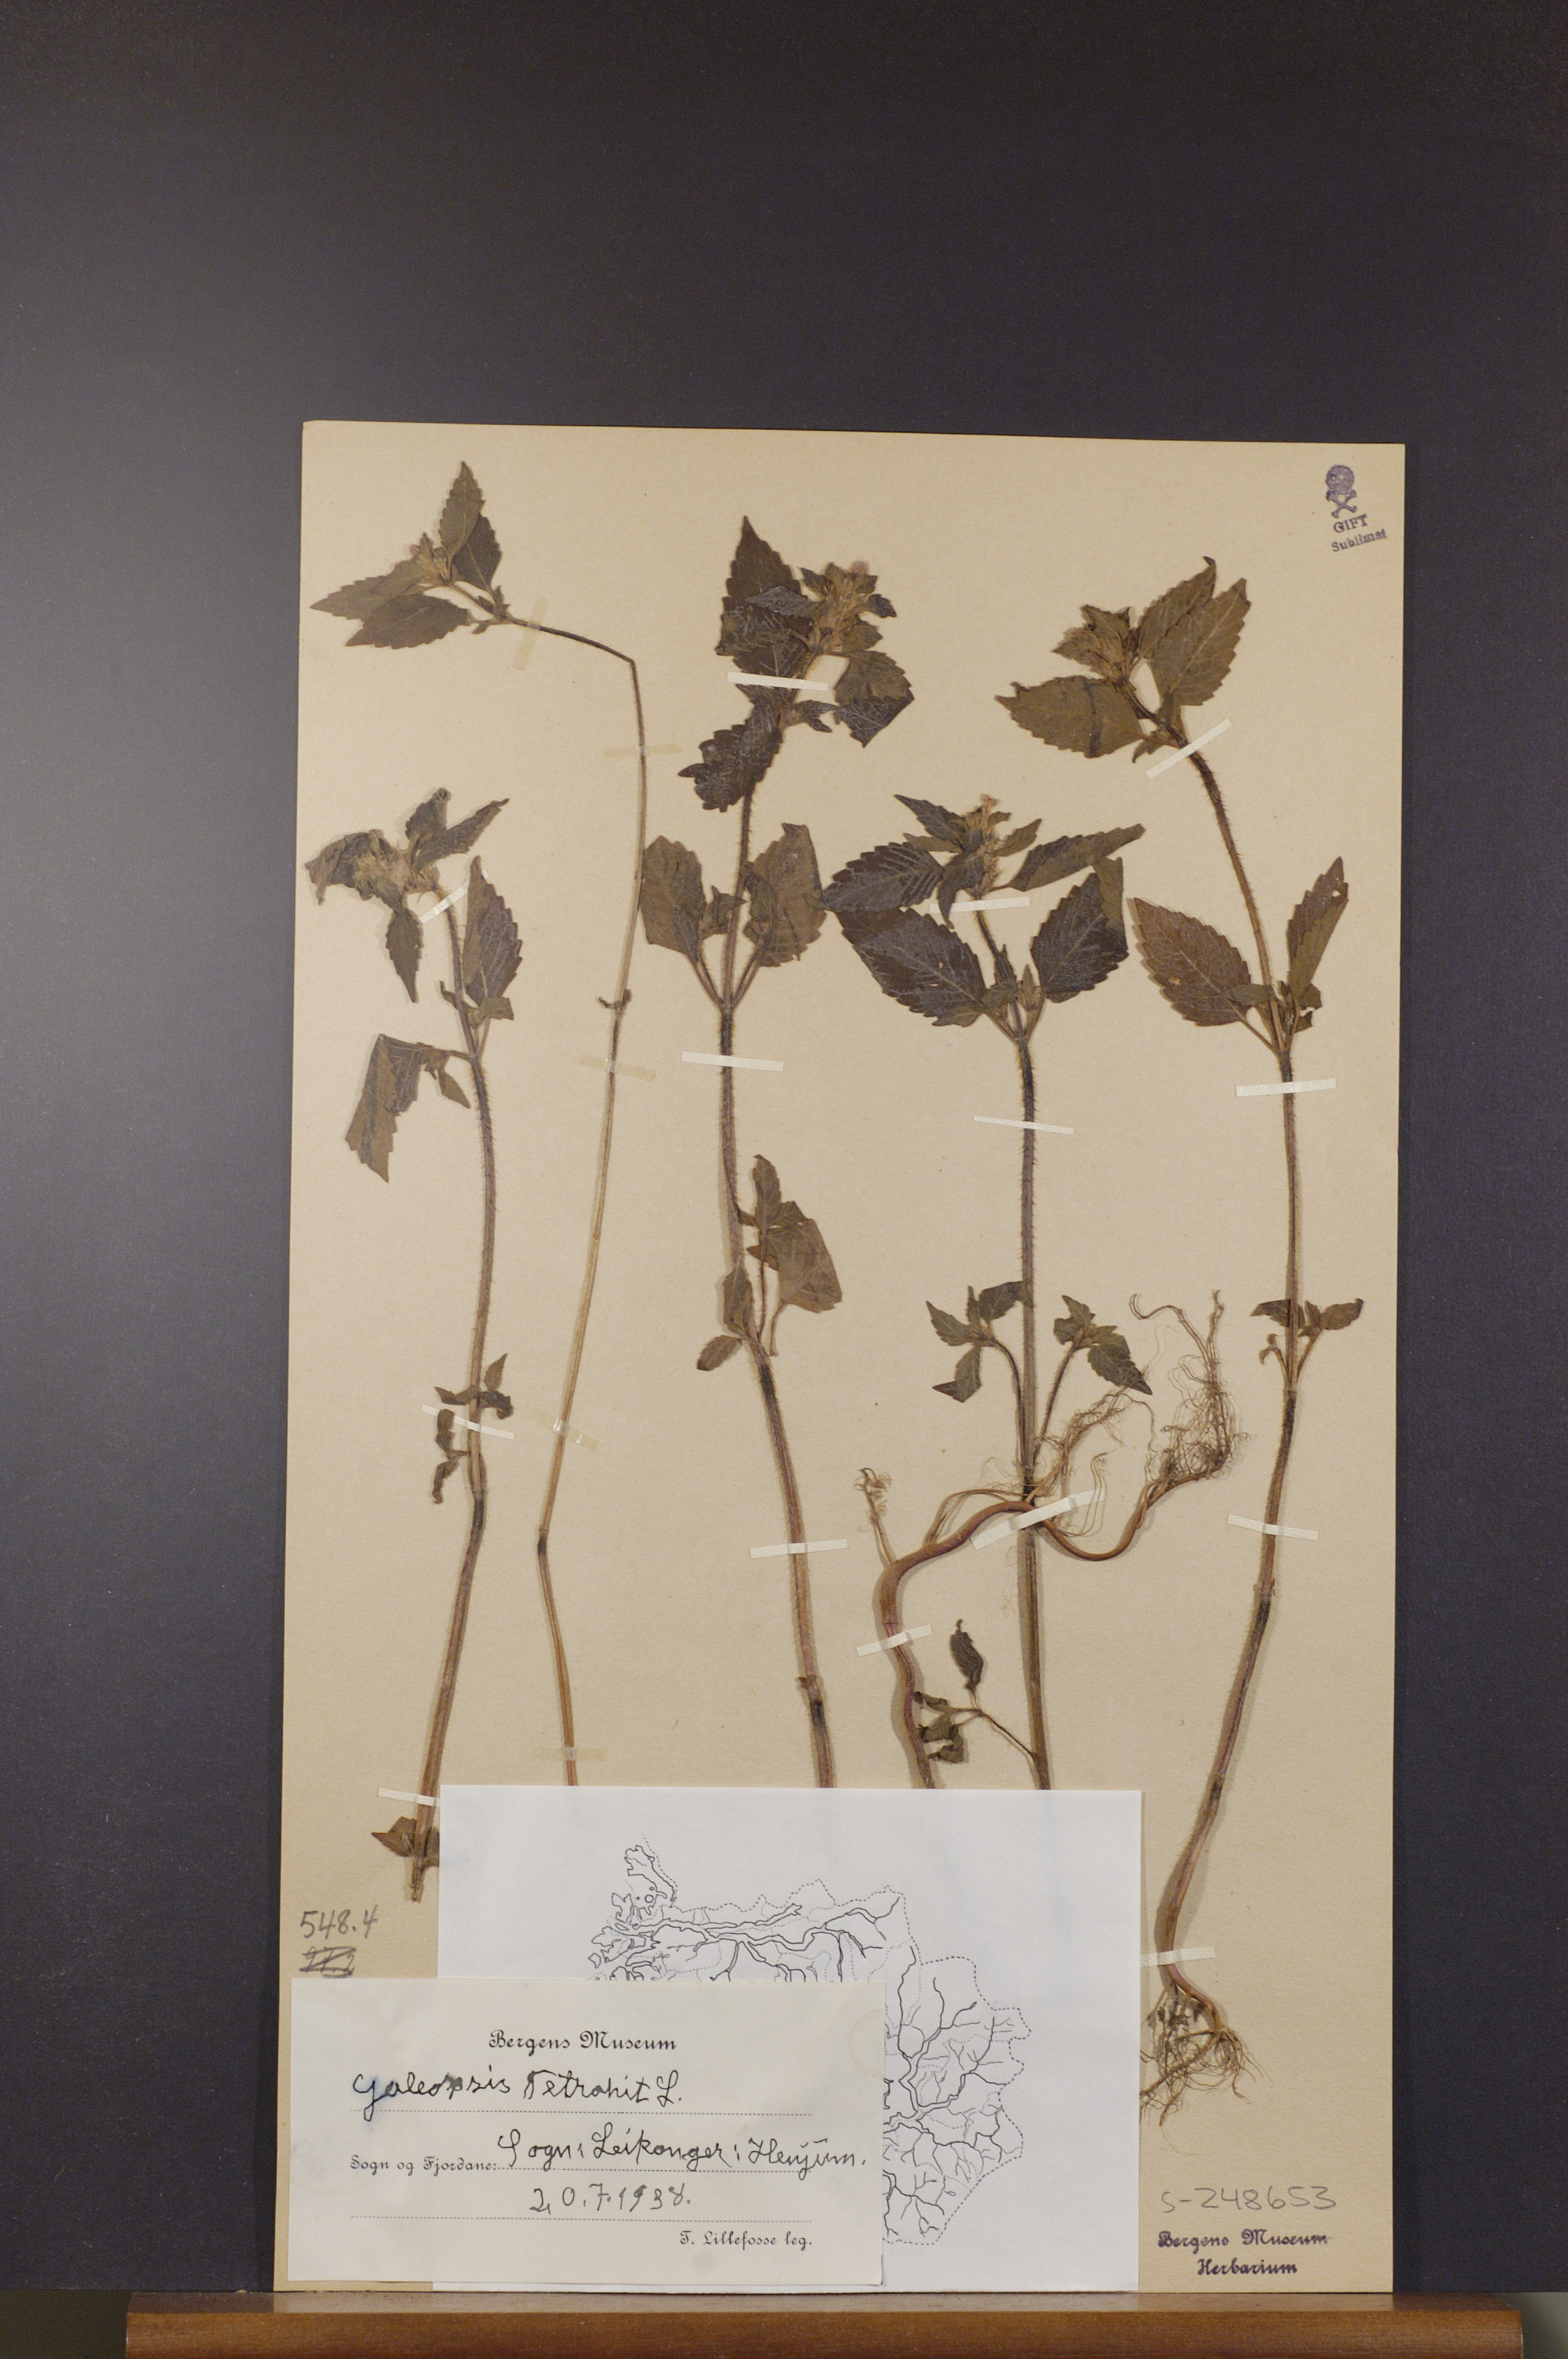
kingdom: Plantae
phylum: Tracheophyta
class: Magnoliopsida
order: Lamiales
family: Lamiaceae
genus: Galeopsis
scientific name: Galeopsis tetrahit
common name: Common hemp-nettle
